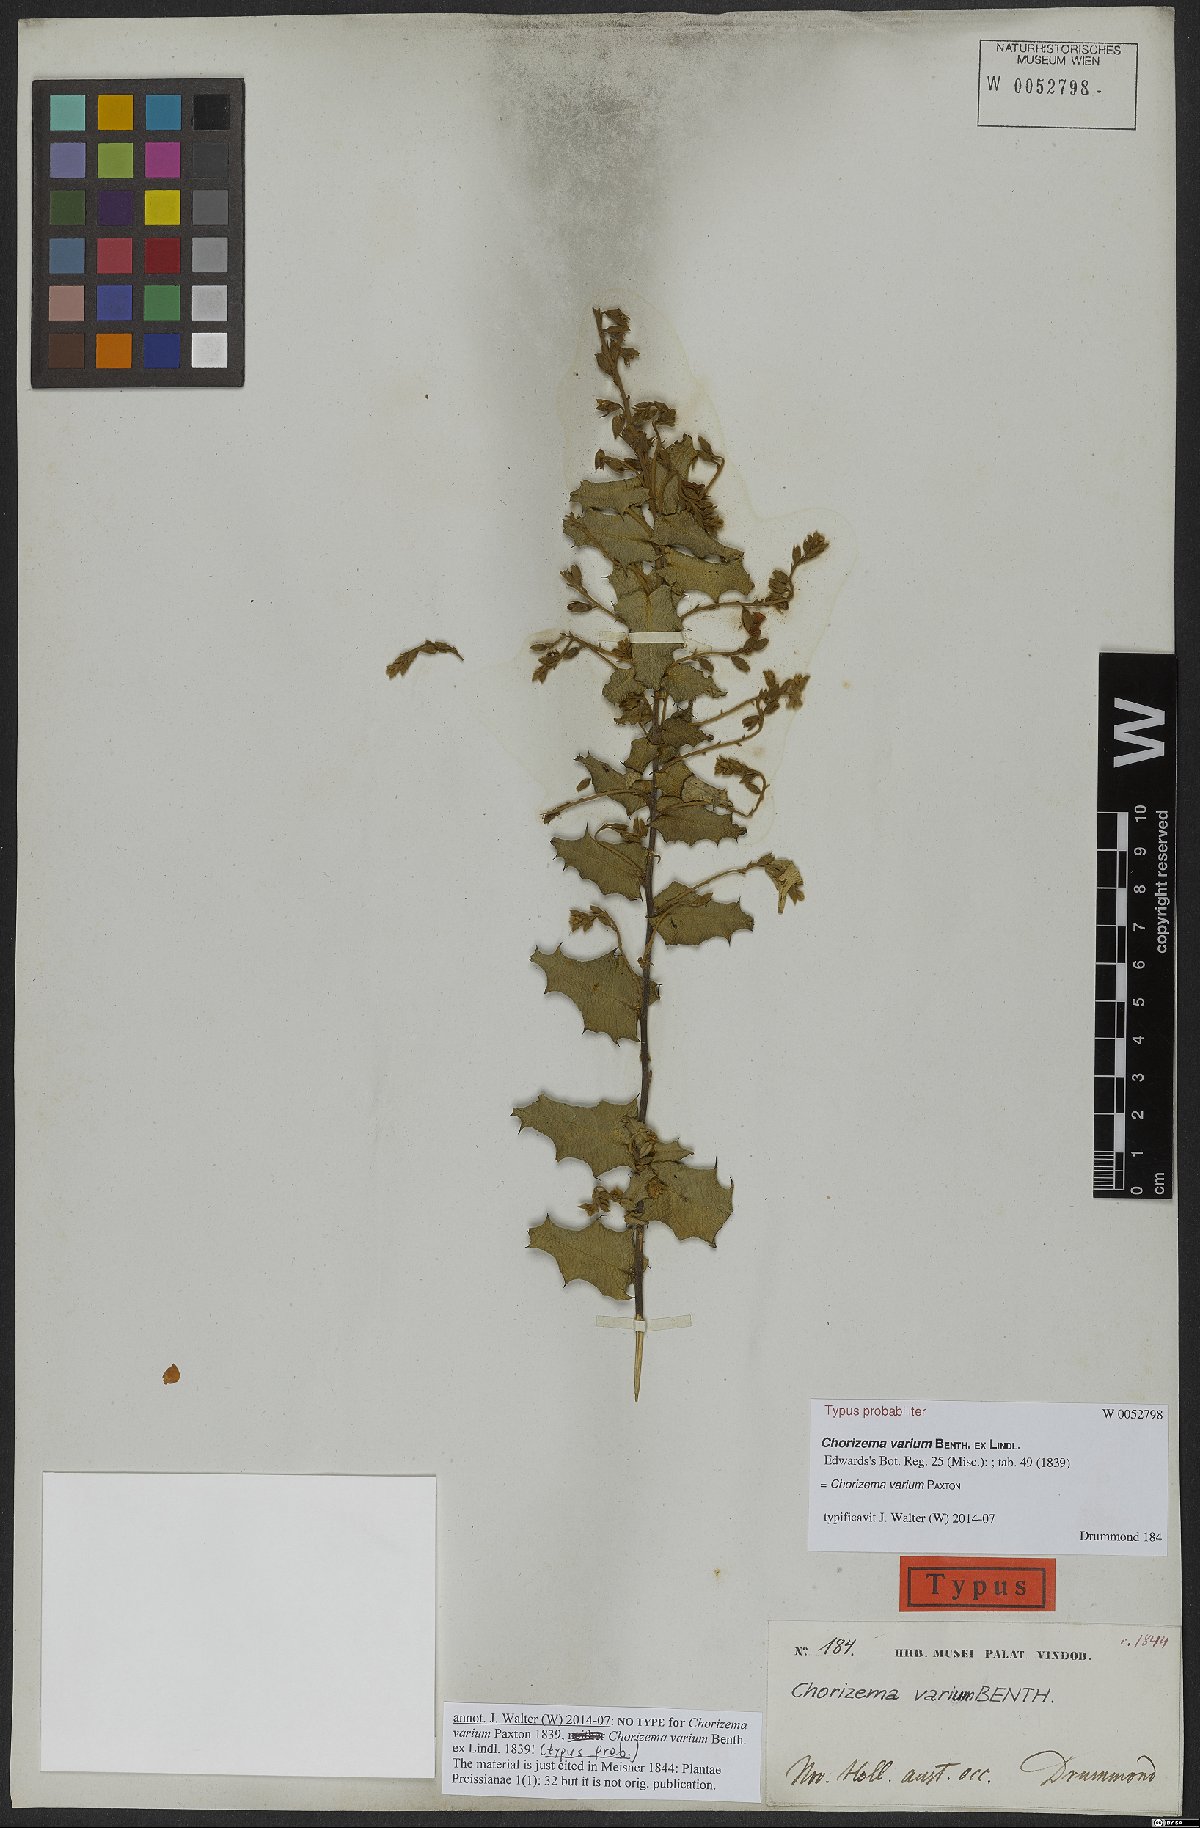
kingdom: Plantae
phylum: Tracheophyta
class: Magnoliopsida
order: Fabales
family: Fabaceae
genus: Chorizema
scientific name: Chorizema varium
